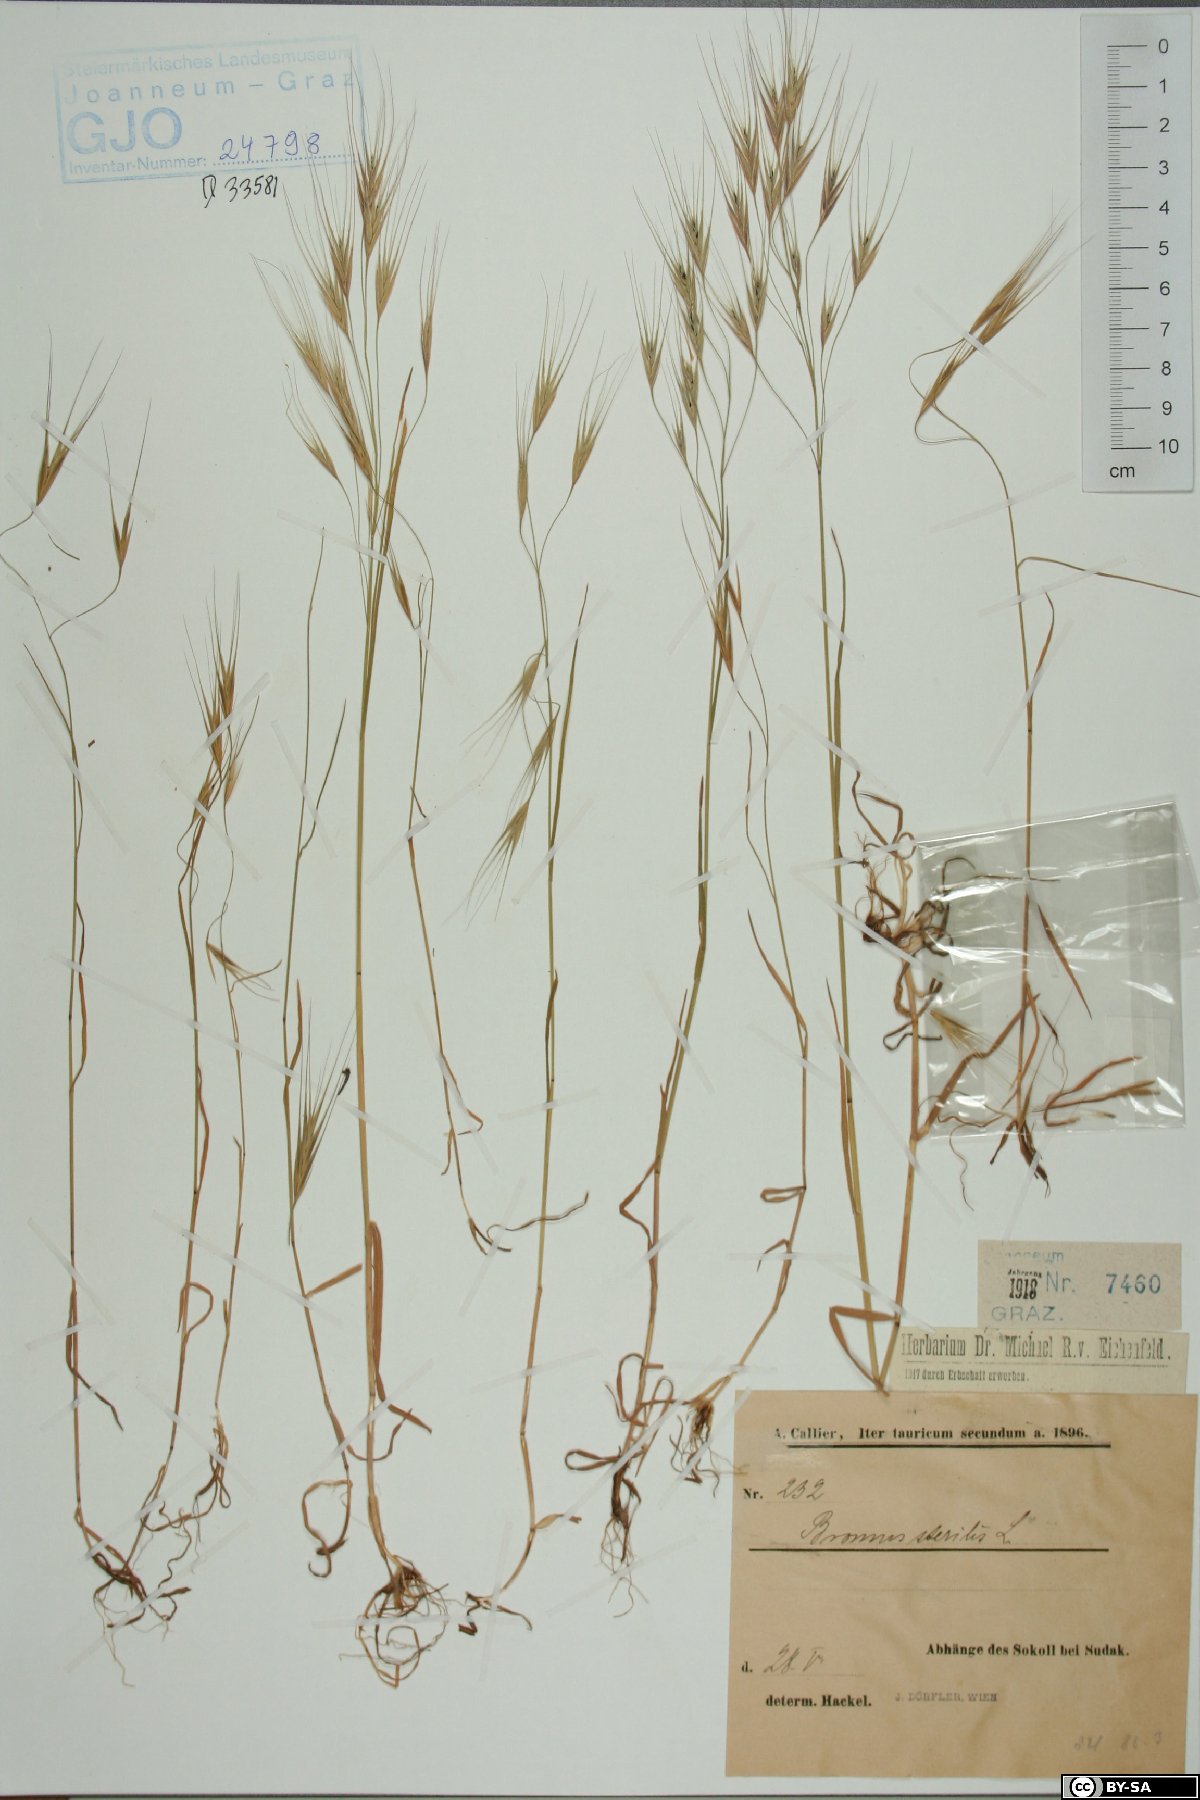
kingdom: Plantae
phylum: Tracheophyta
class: Liliopsida
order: Poales
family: Poaceae
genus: Bromus
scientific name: Bromus sterilis
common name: Poverty brome
